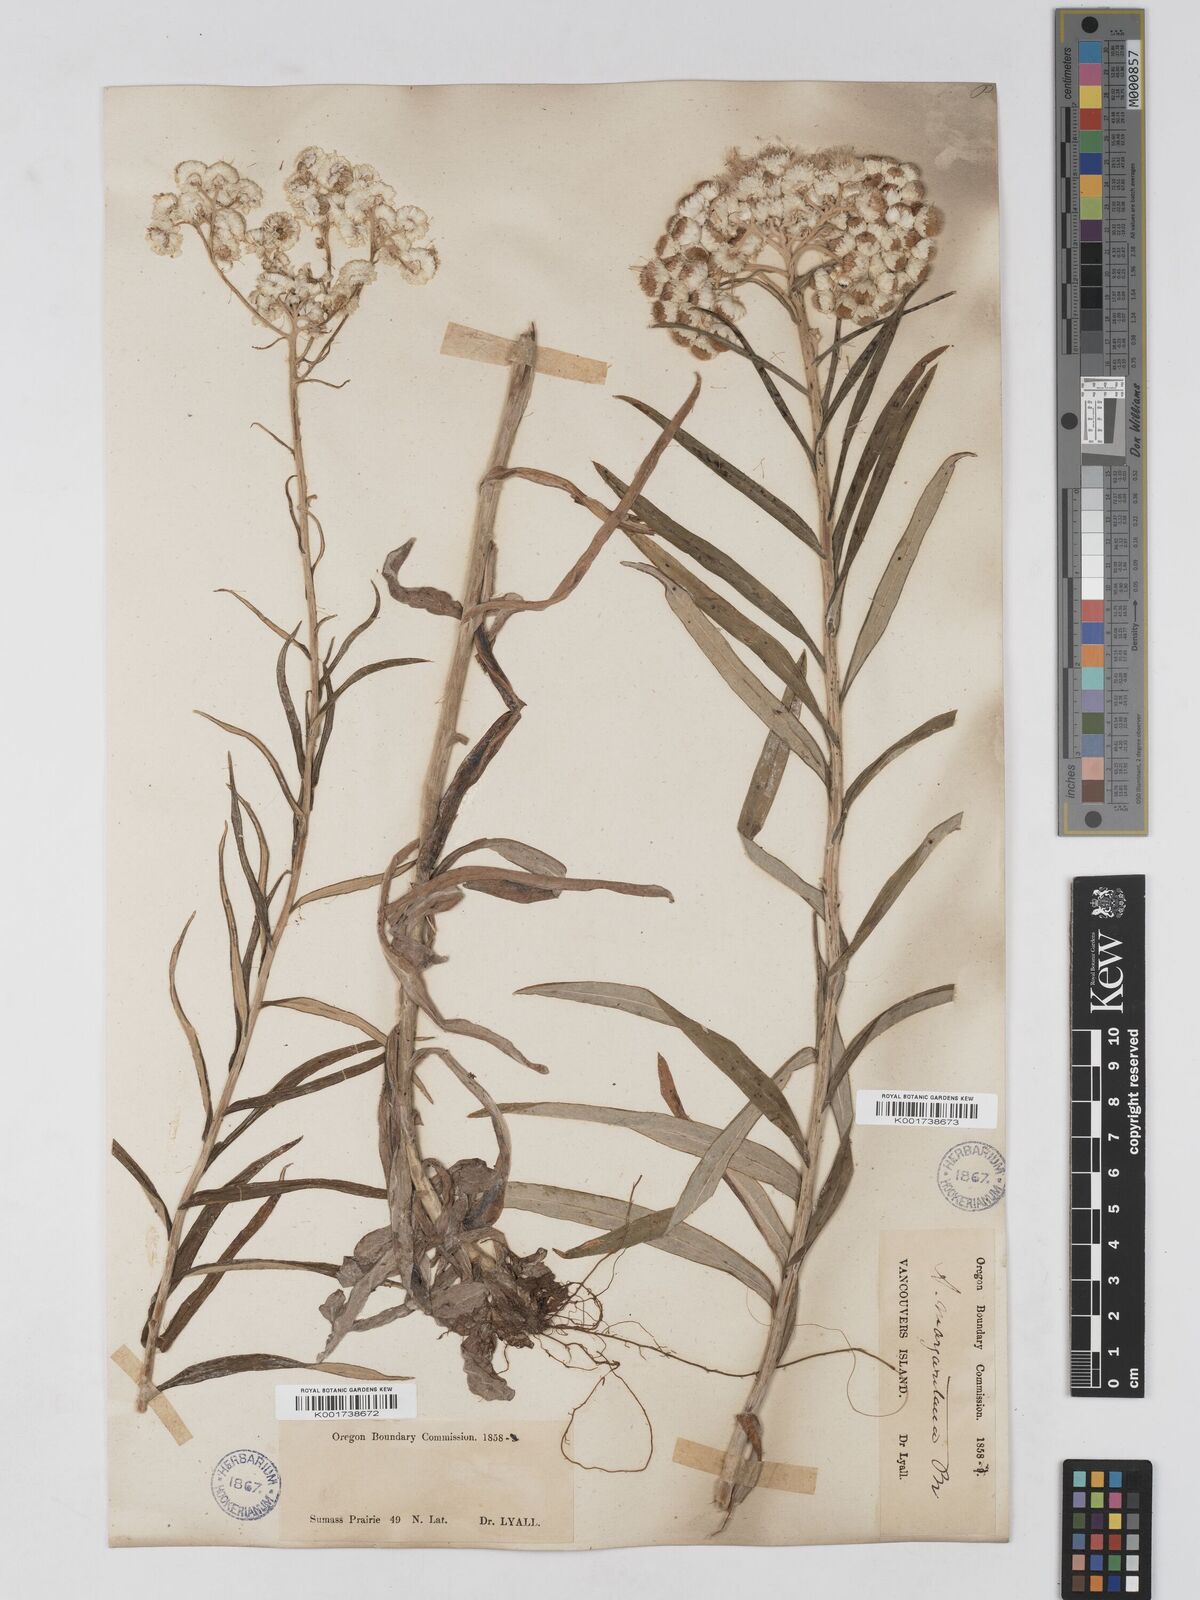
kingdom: Plantae
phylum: Tracheophyta
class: Magnoliopsida
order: Asterales
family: Asteraceae
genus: Anaphalis
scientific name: Anaphalis margaritacea
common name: Pearly everlasting
